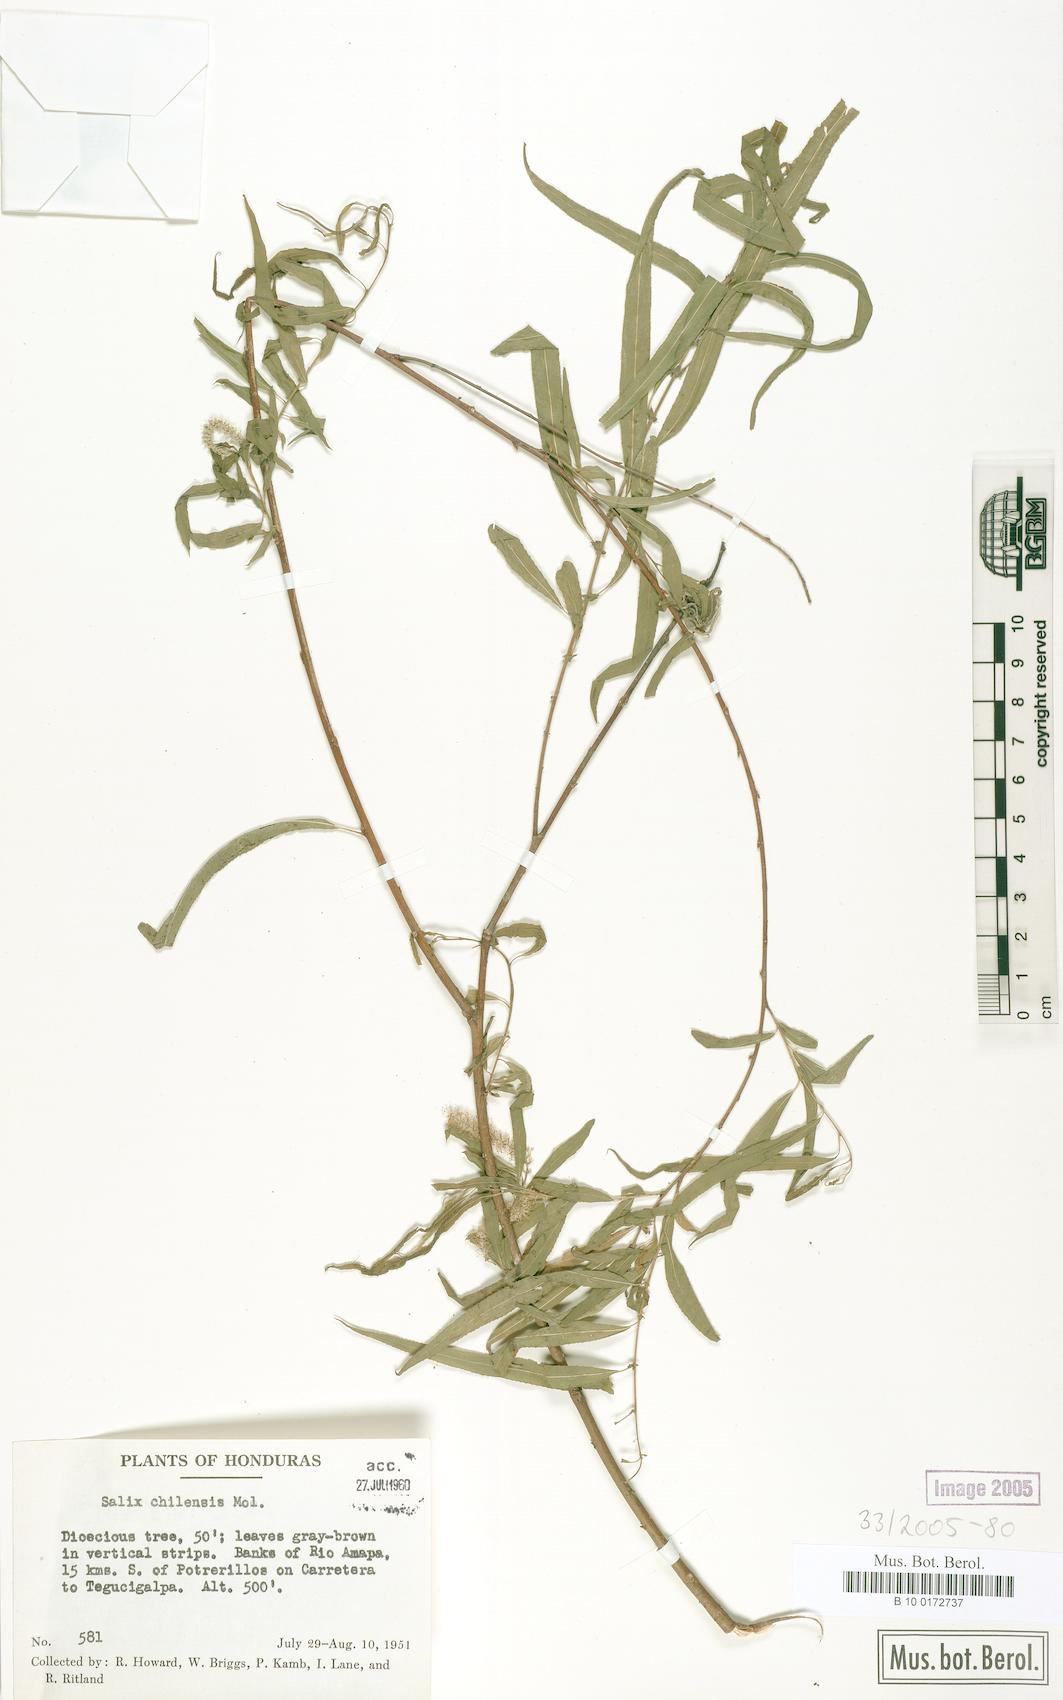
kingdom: Plantae
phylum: Tracheophyta
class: Magnoliopsida
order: Malpighiales
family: Salicaceae
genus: Salix
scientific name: Salix humboldtiana
